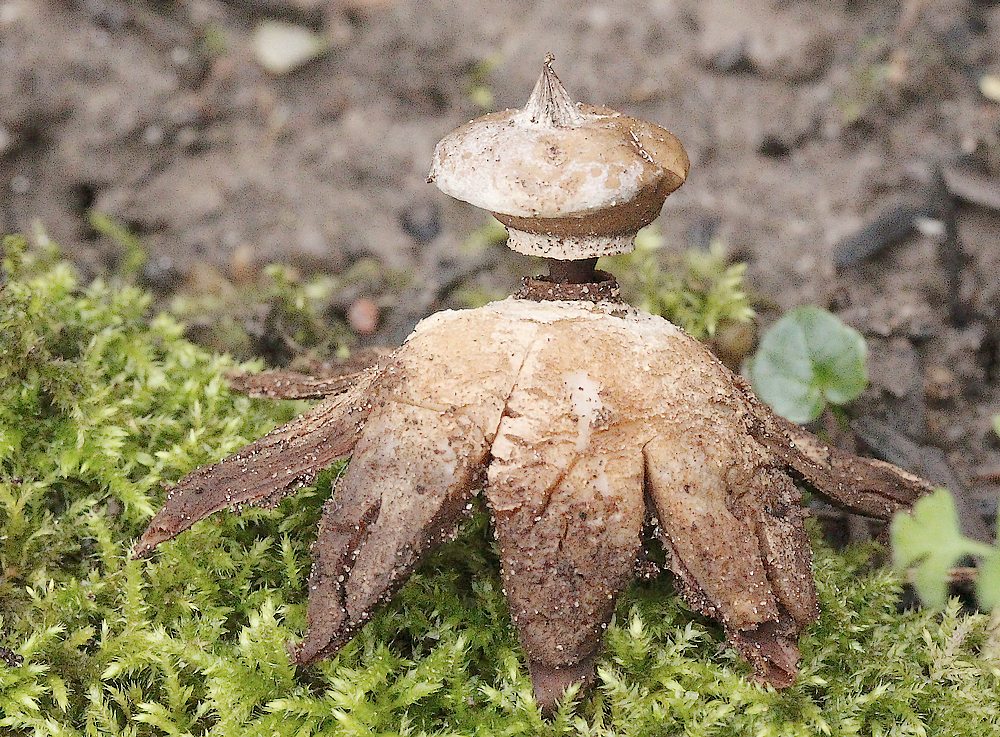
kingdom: Fungi
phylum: Basidiomycota
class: Agaricomycetes
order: Geastrales
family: Geastraceae
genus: Geastrum
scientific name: Geastrum striatum
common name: krave-stjernebold
